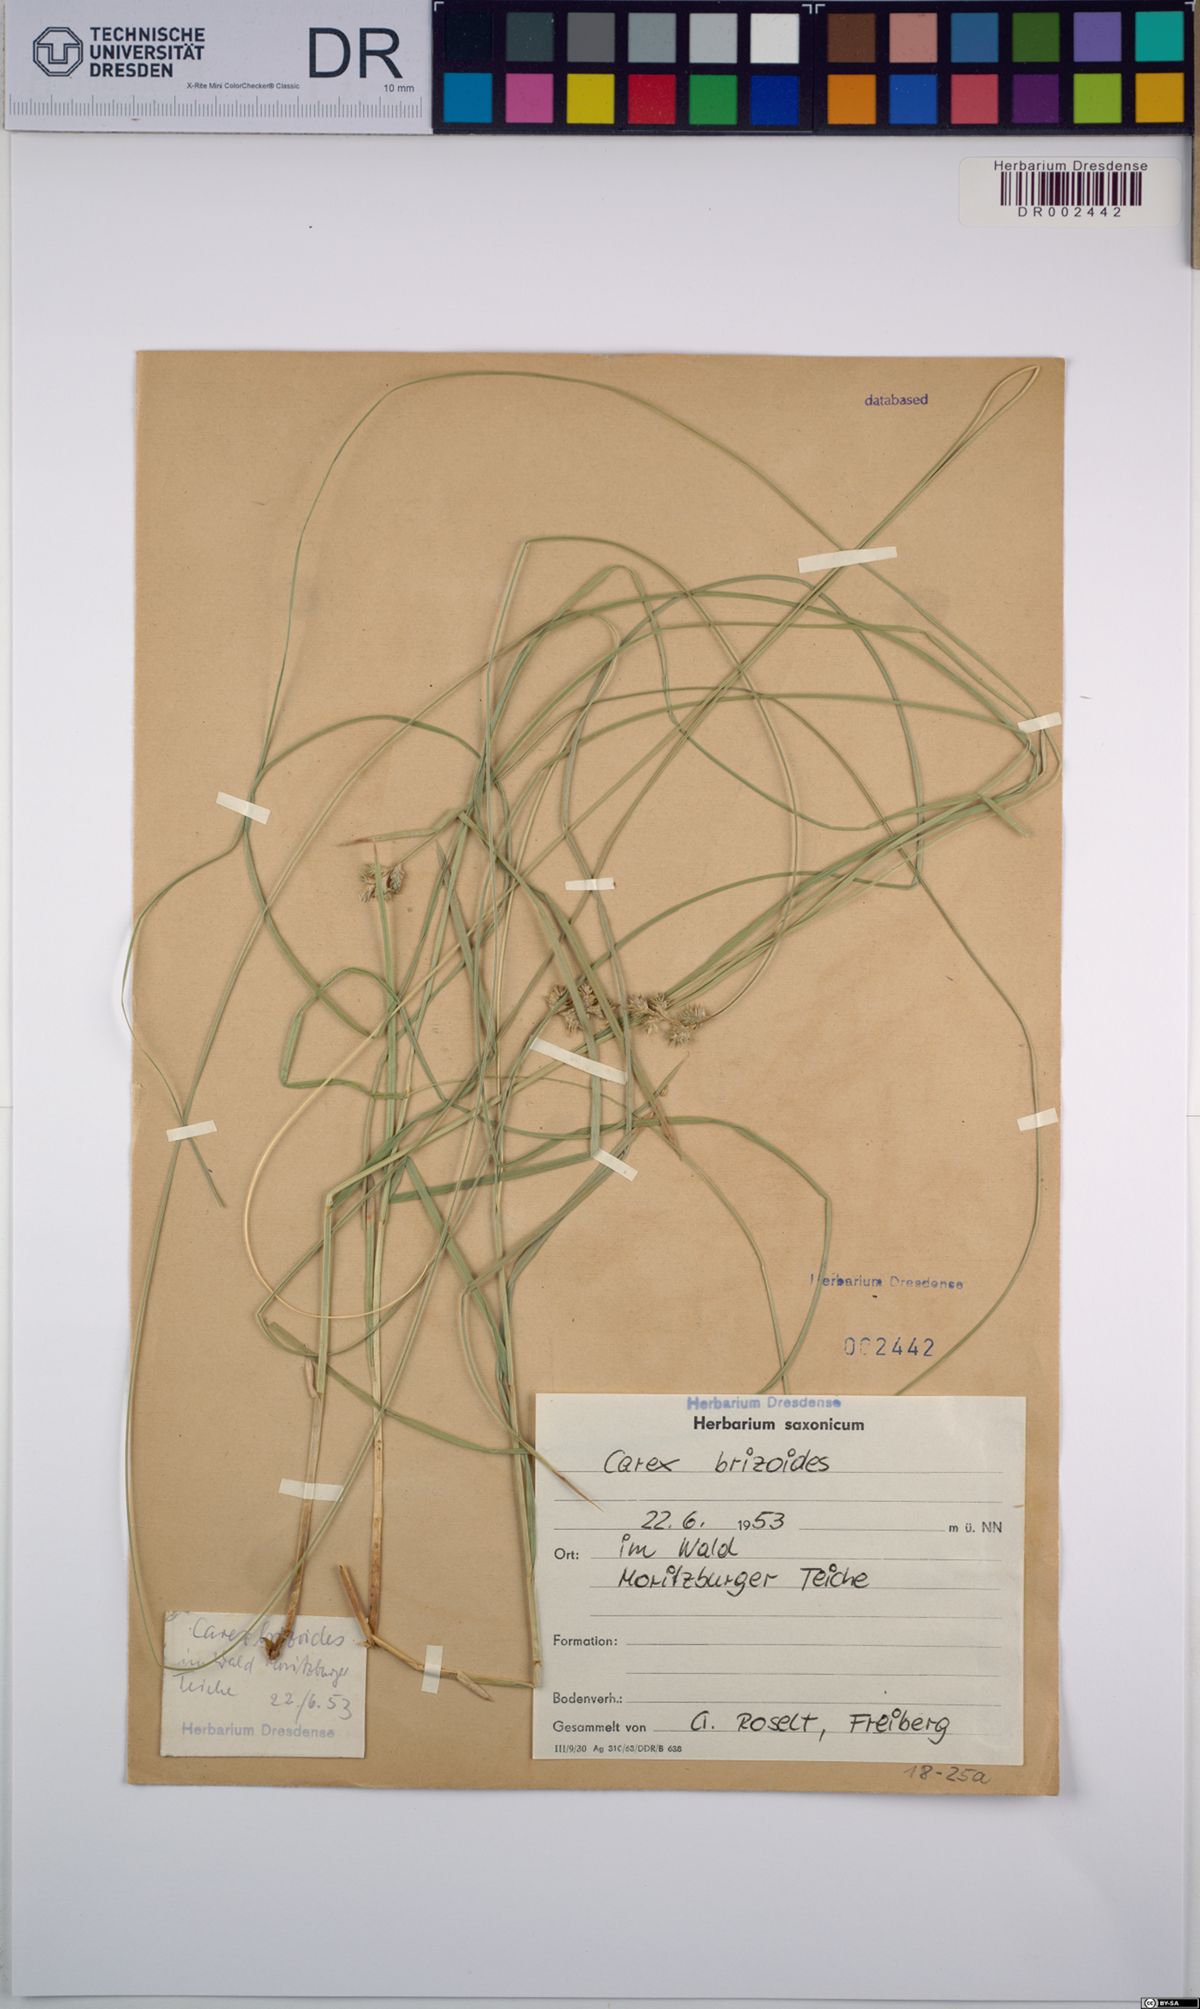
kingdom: Plantae
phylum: Tracheophyta
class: Liliopsida
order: Poales
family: Cyperaceae
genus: Carex
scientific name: Carex brizoides
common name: Quaking-grass sedge
